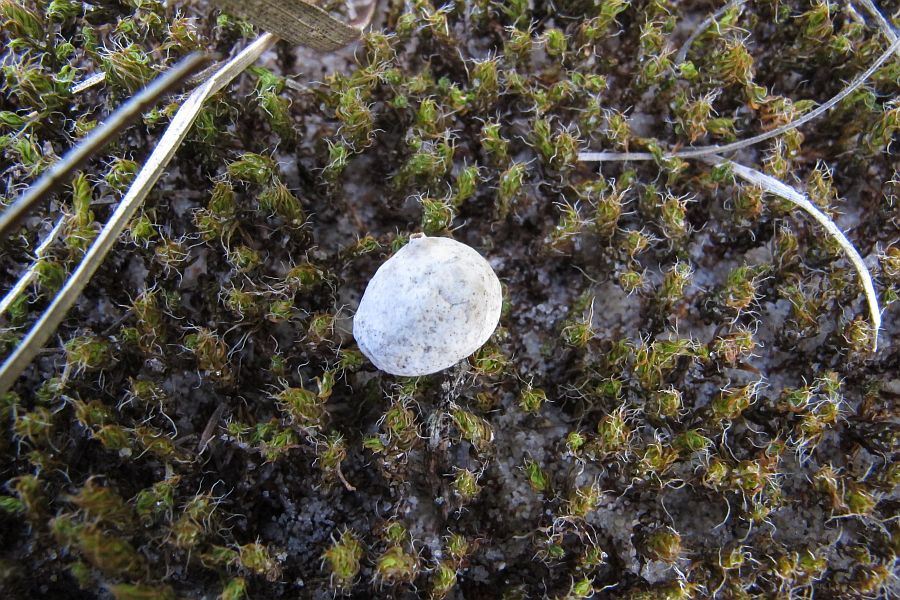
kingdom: Fungi
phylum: Basidiomycota
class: Agaricomycetes
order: Agaricales
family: Agaricaceae
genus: Tulostoma
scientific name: Tulostoma brumale
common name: vinter-stilkbovist
